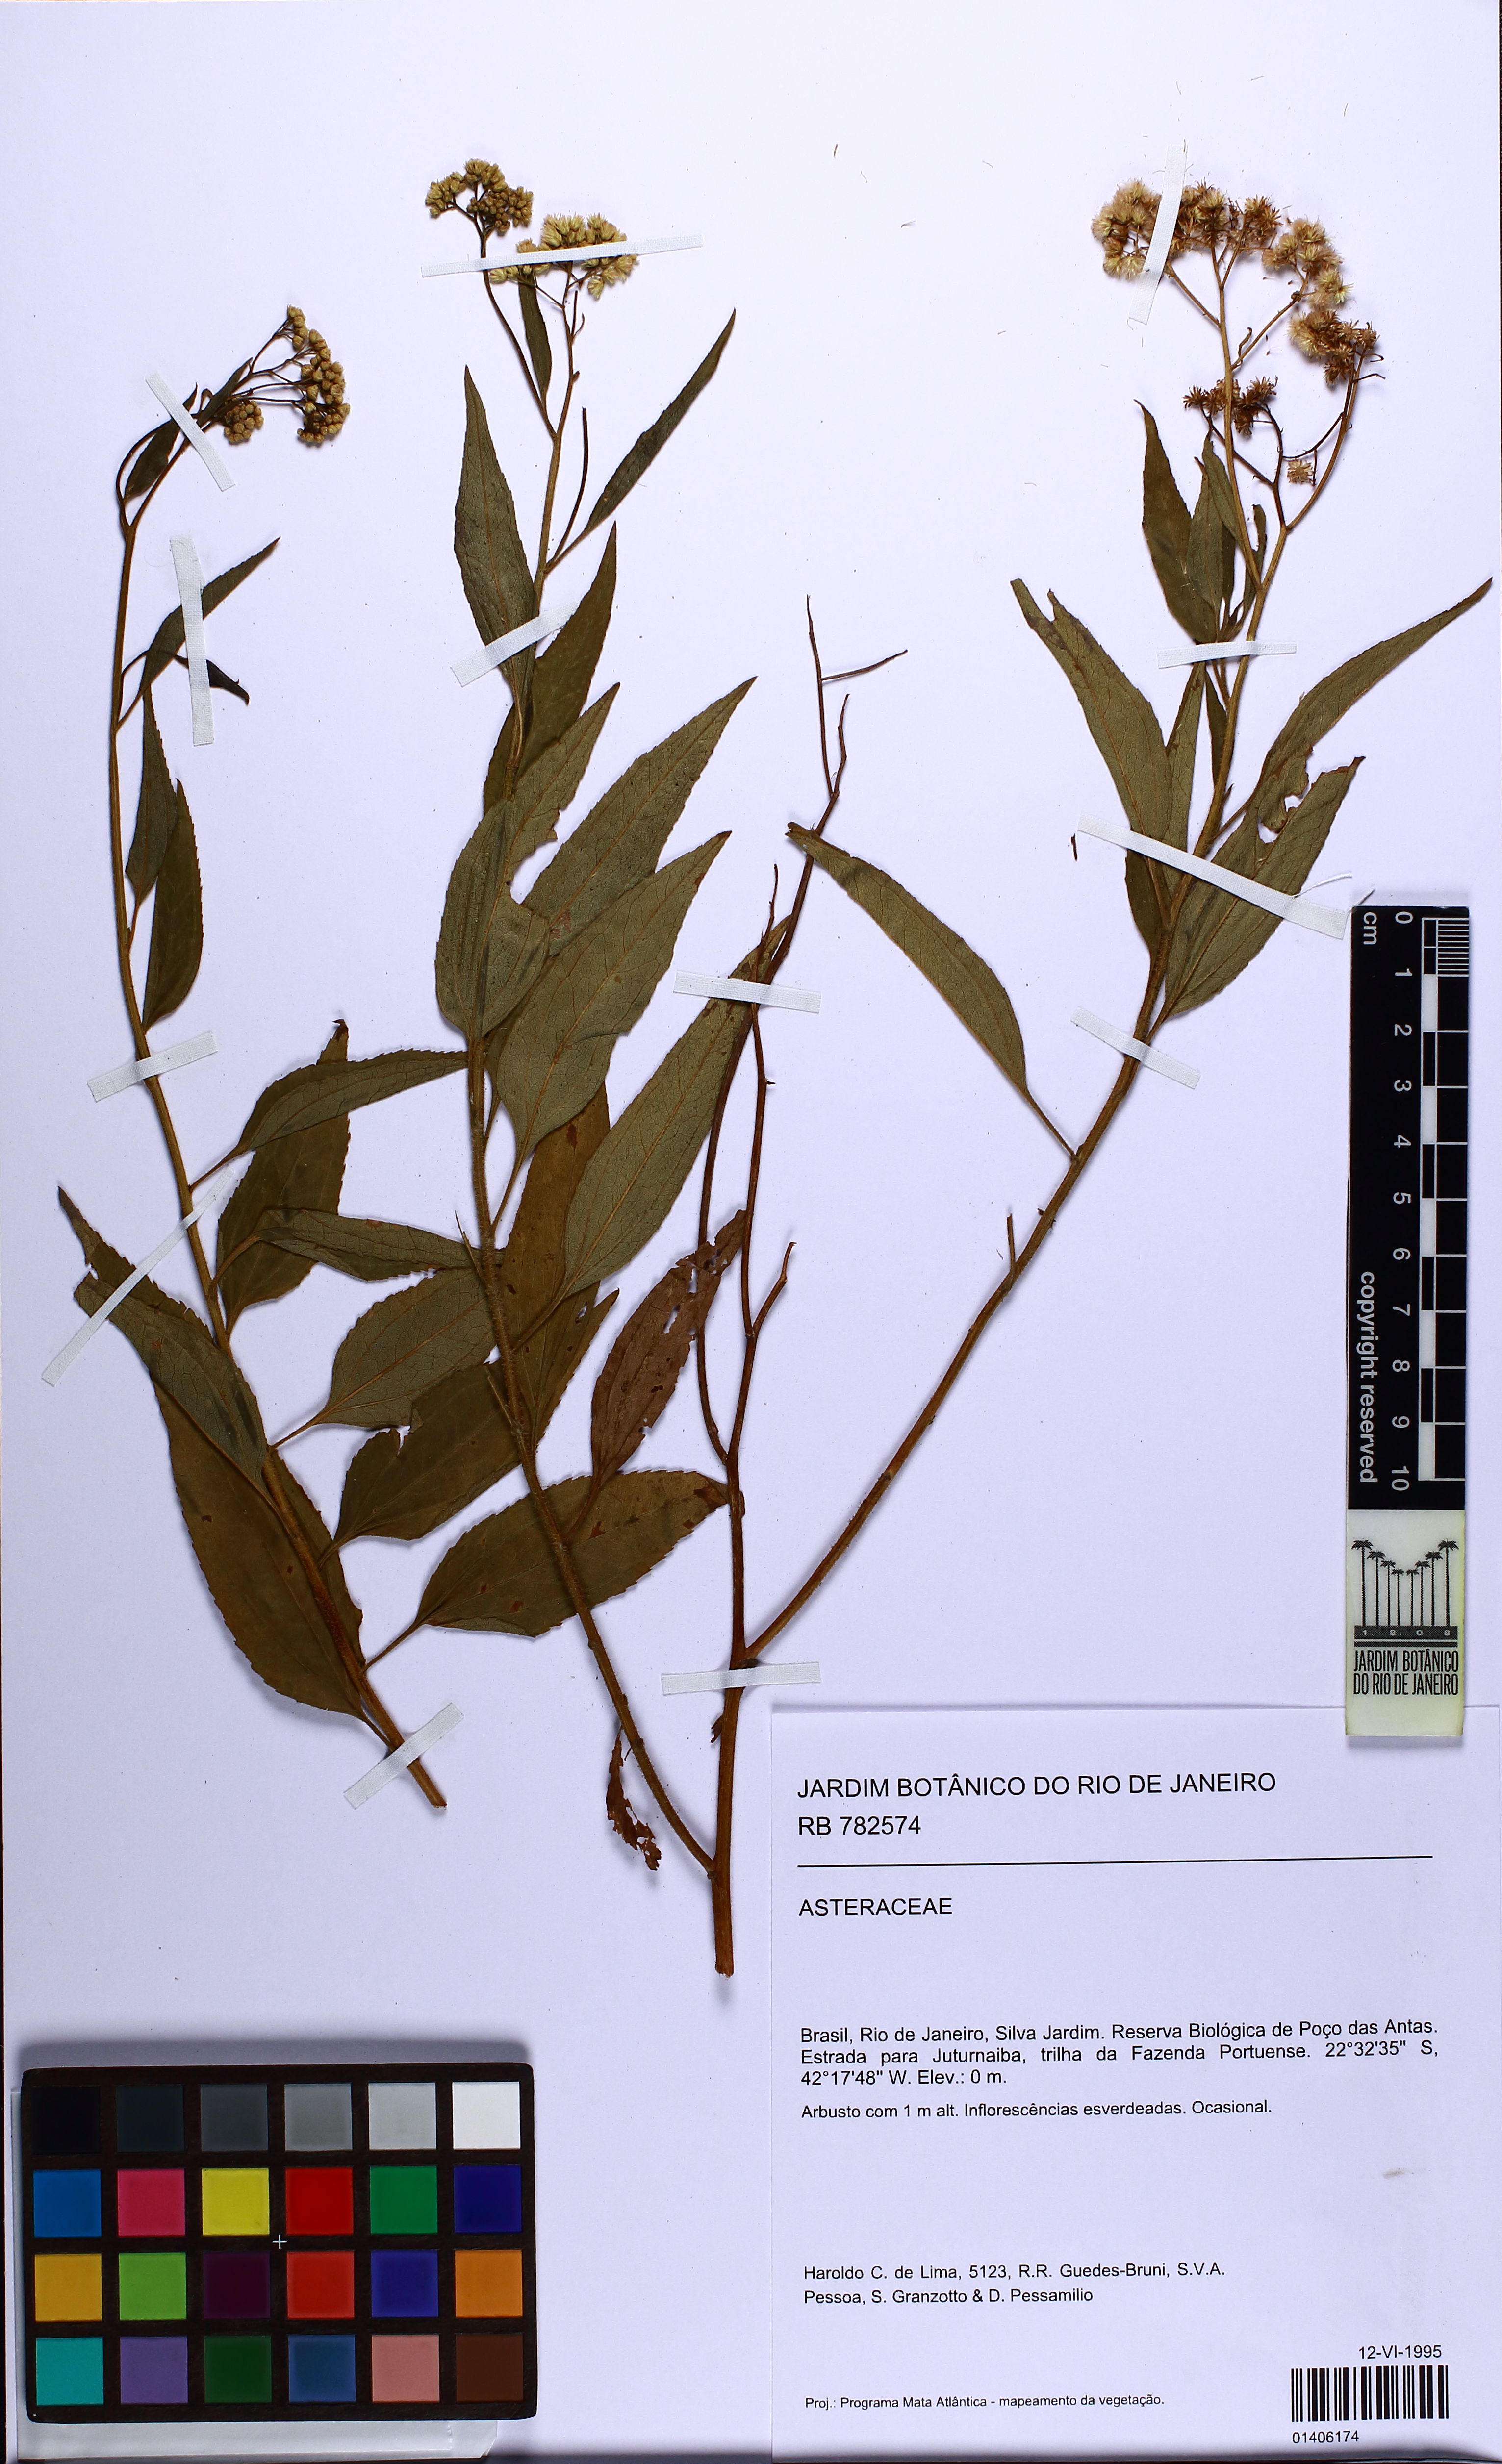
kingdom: Plantae
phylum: Tracheophyta
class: Magnoliopsida
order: Asterales
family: Asteraceae
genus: Baccharis
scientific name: Baccharis serrulata
